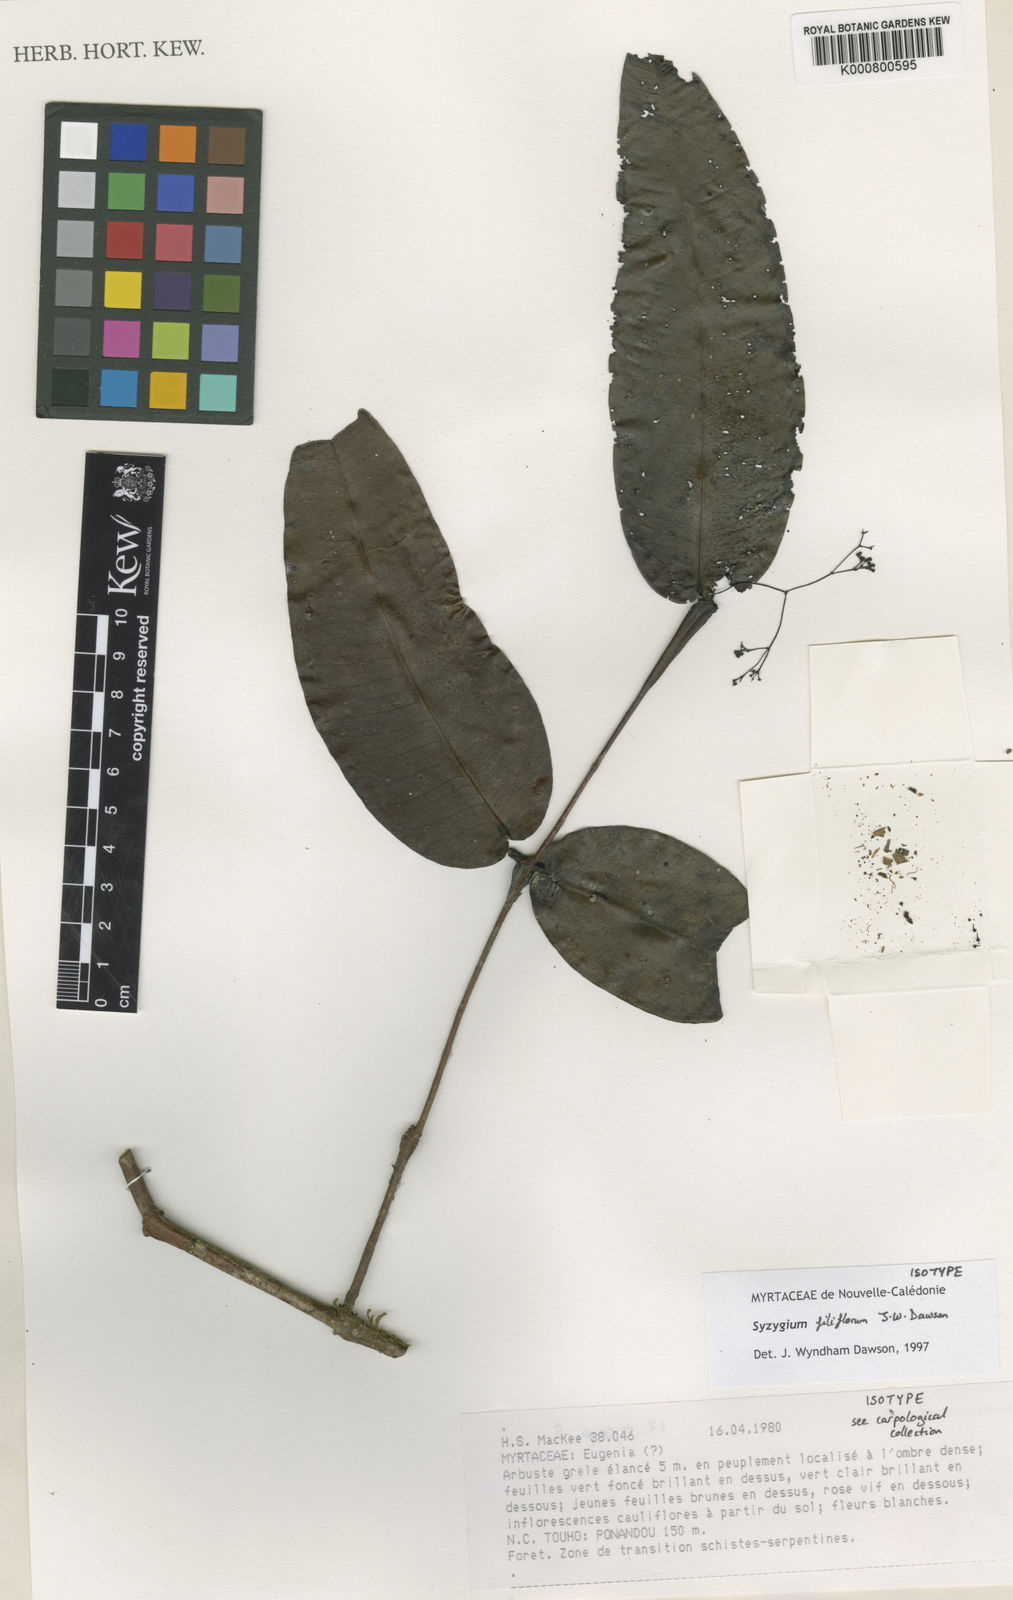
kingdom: Plantae
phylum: Tracheophyta
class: Magnoliopsida
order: Myrtales
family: Myrtaceae
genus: Syzygium
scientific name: Syzygium filiflorum
